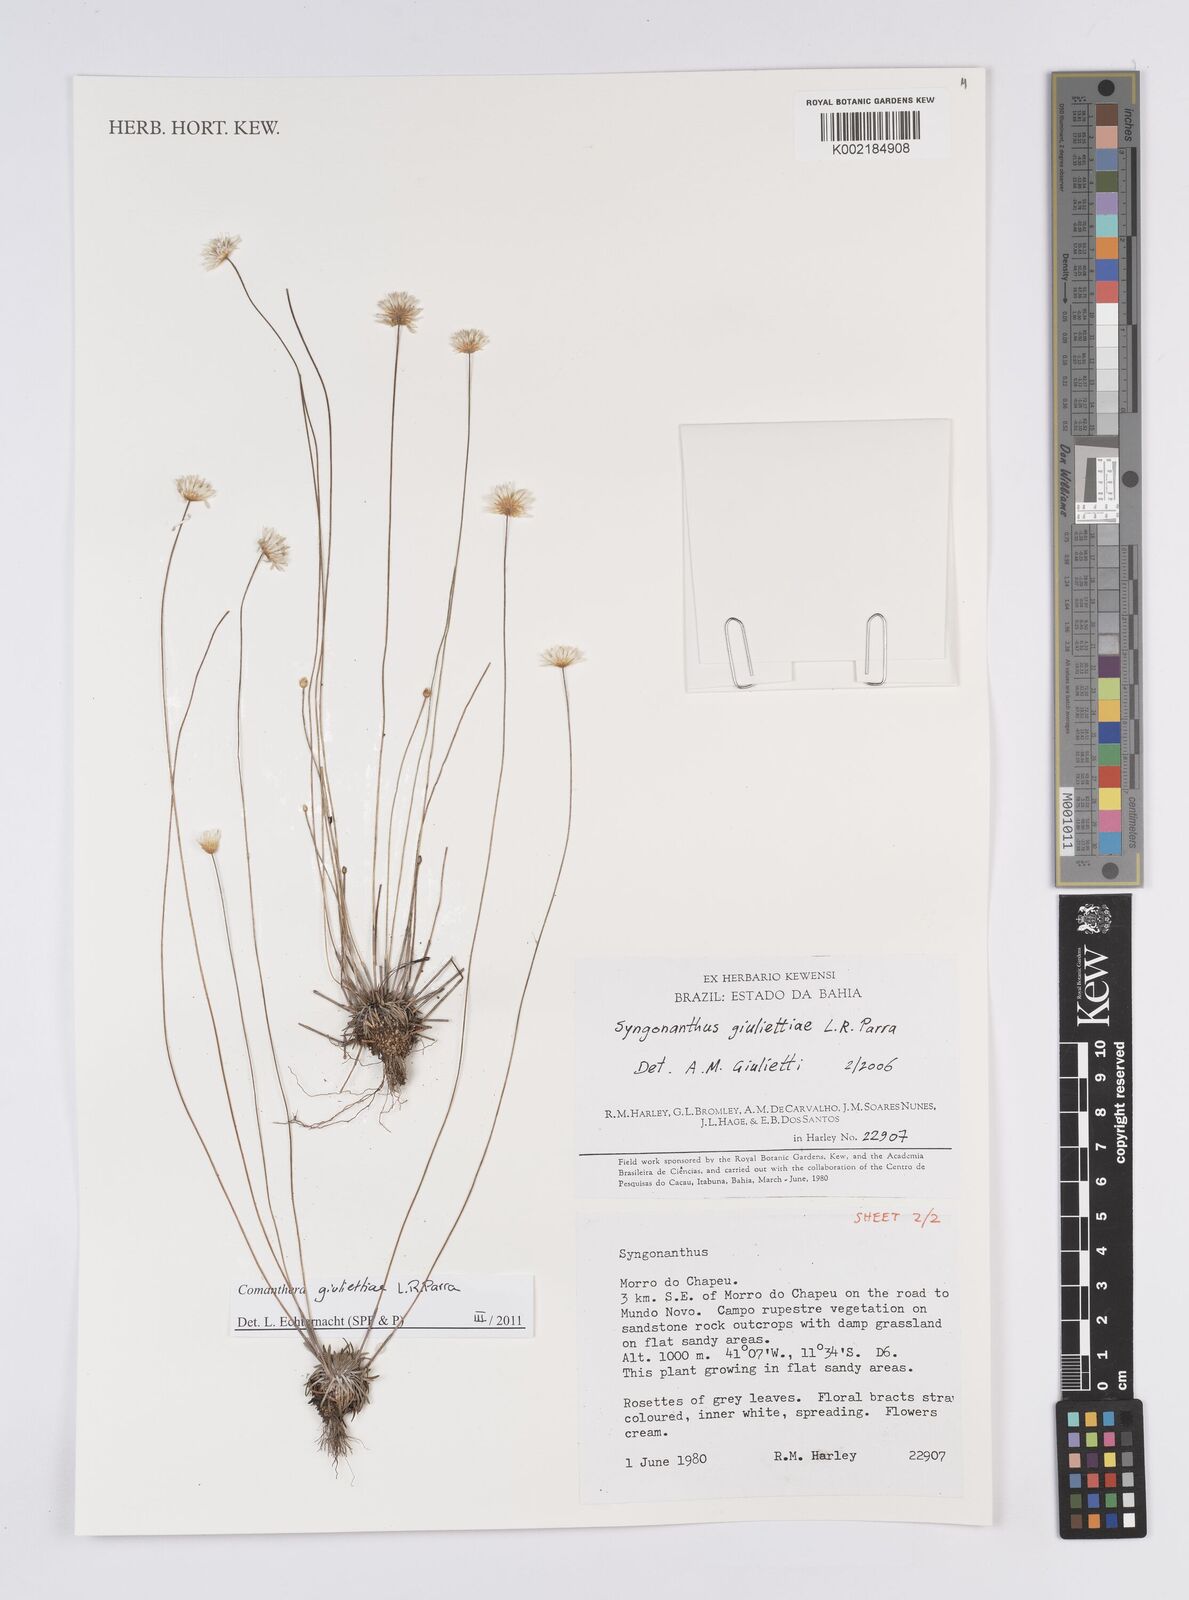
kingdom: Plantae
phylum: Tracheophyta
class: Liliopsida
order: Poales
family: Eriocaulaceae
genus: Comanthera
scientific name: Comanthera giuliettiae
